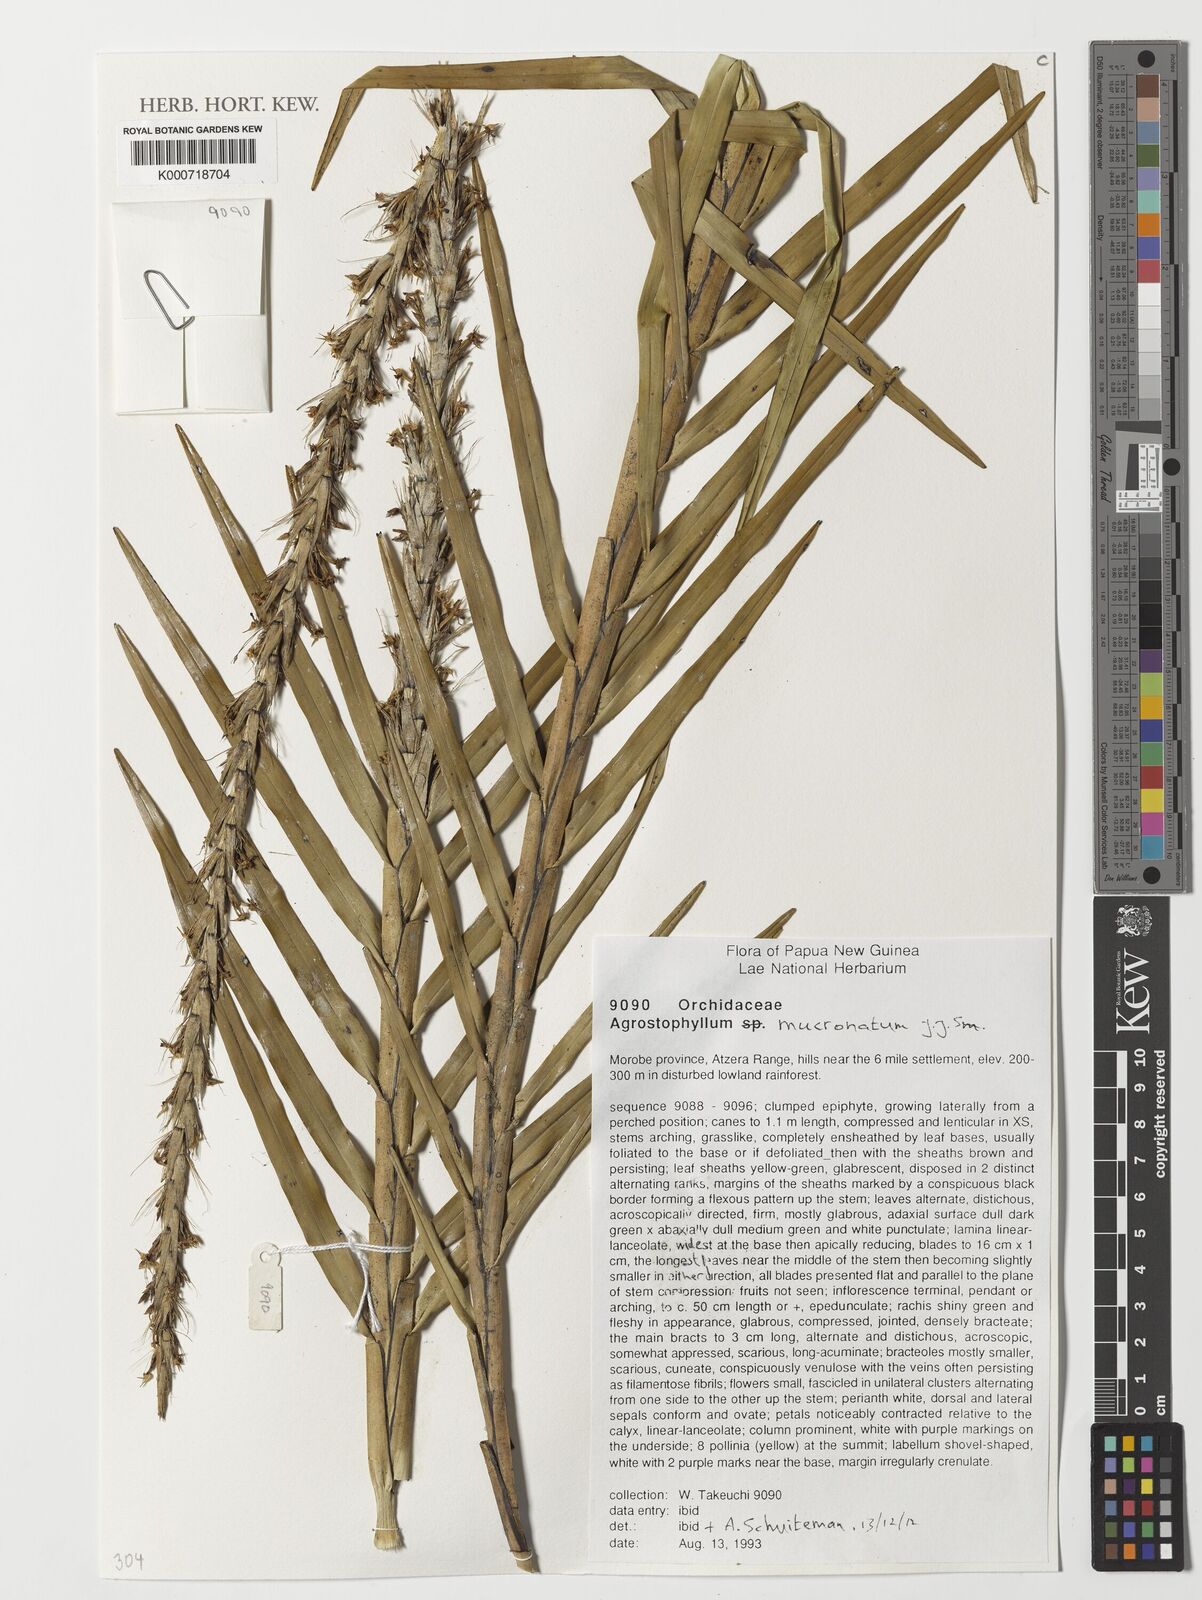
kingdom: Plantae
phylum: Tracheophyta
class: Liliopsida
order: Asparagales
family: Orchidaceae
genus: Agrostophyllum
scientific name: Agrostophyllum mucronatum
